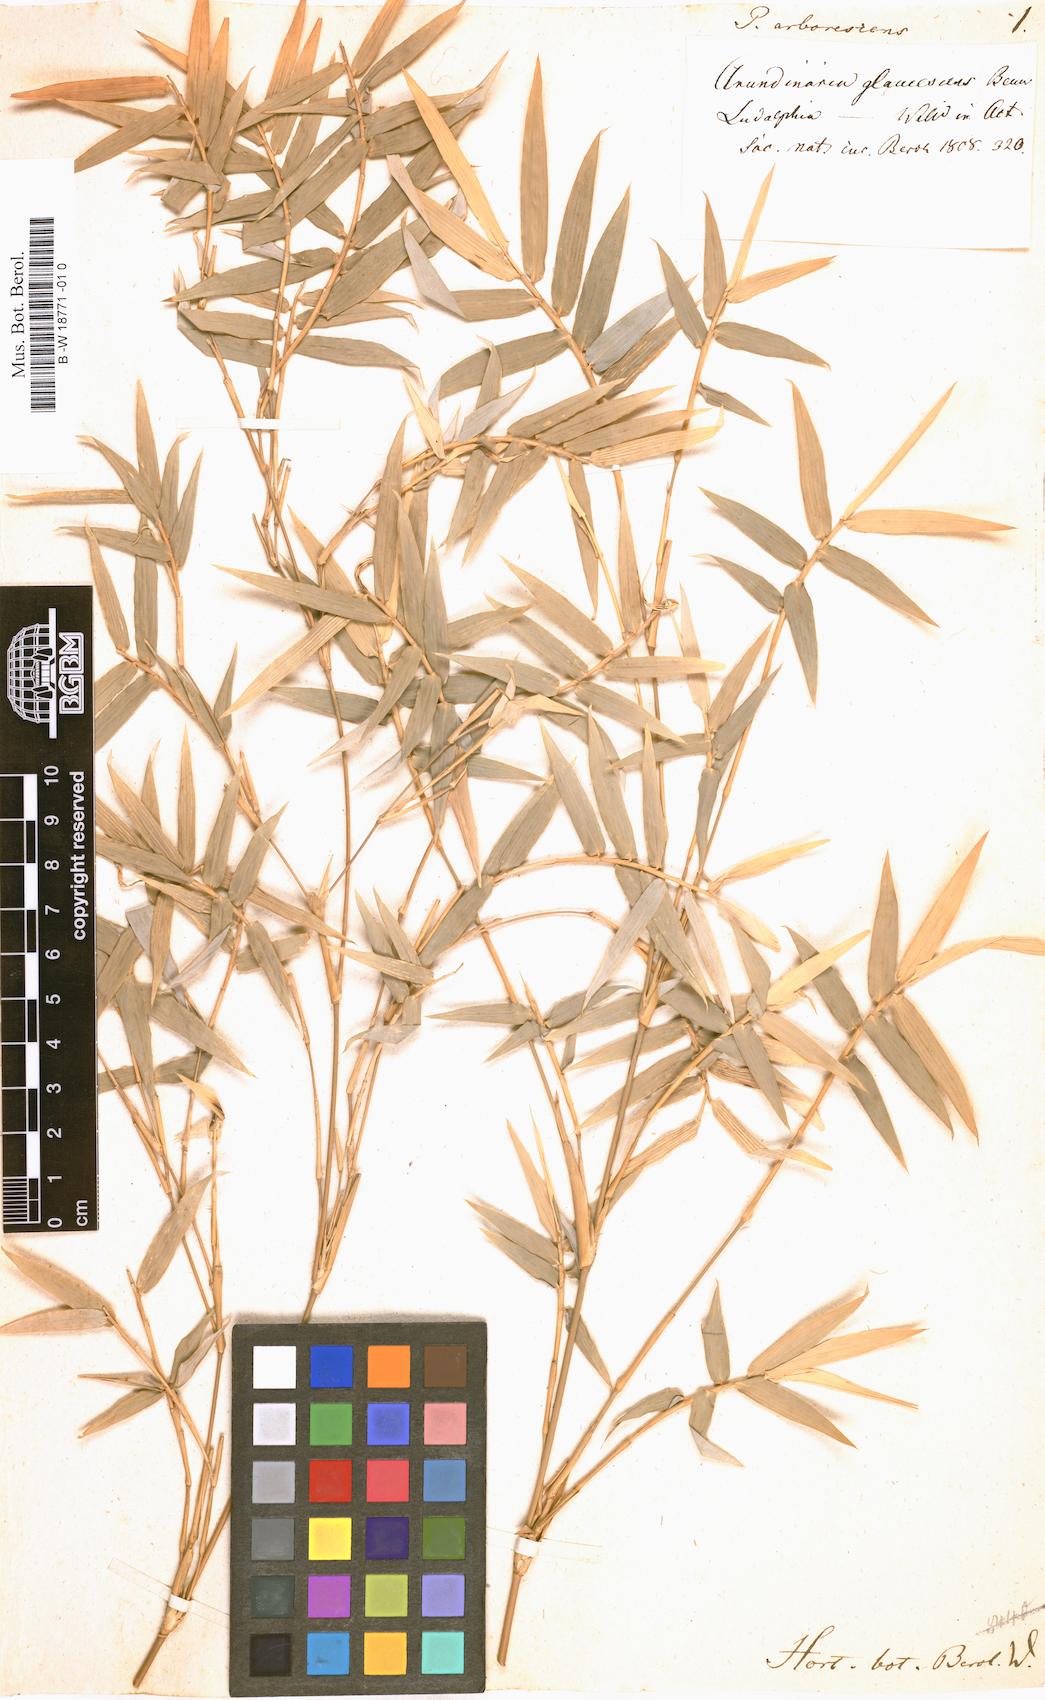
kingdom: Plantae
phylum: Tracheophyta
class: Liliopsida
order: Poales
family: Poaceae
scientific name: Poaceae
